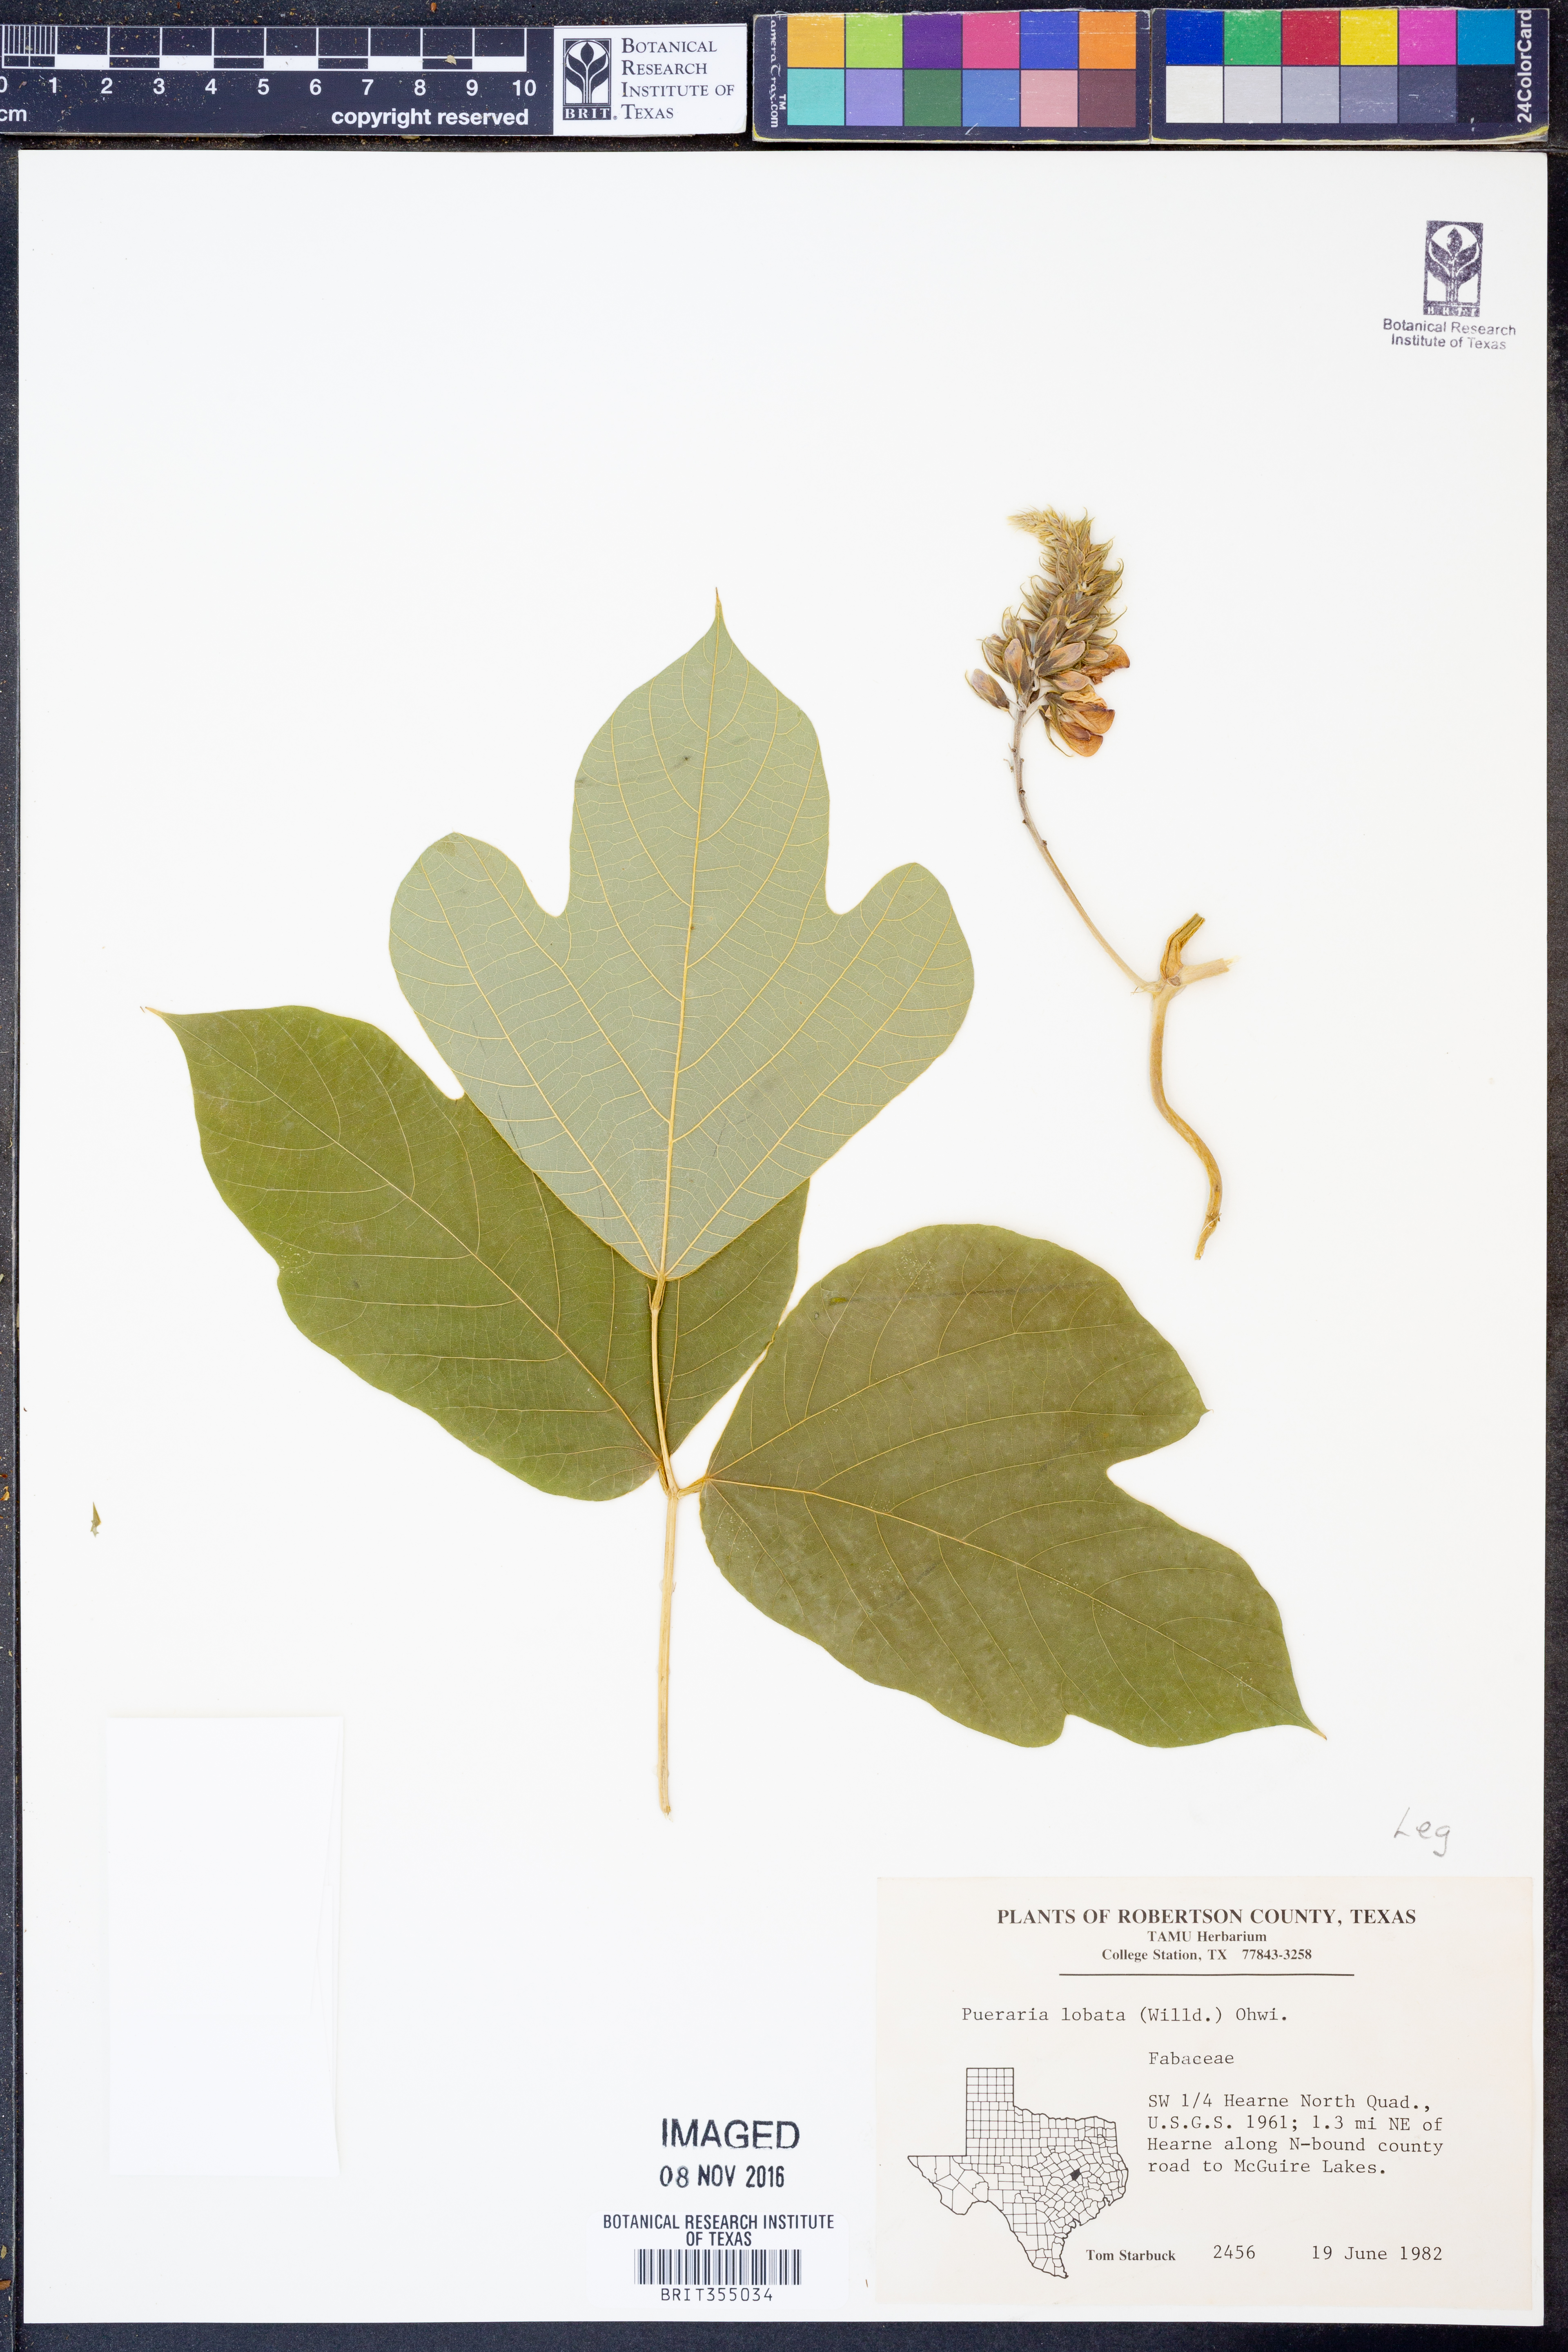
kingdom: Plantae
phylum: Tracheophyta
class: Magnoliopsida
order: Fabales
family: Fabaceae
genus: Pueraria
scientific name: Pueraria montana
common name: Kudzu
